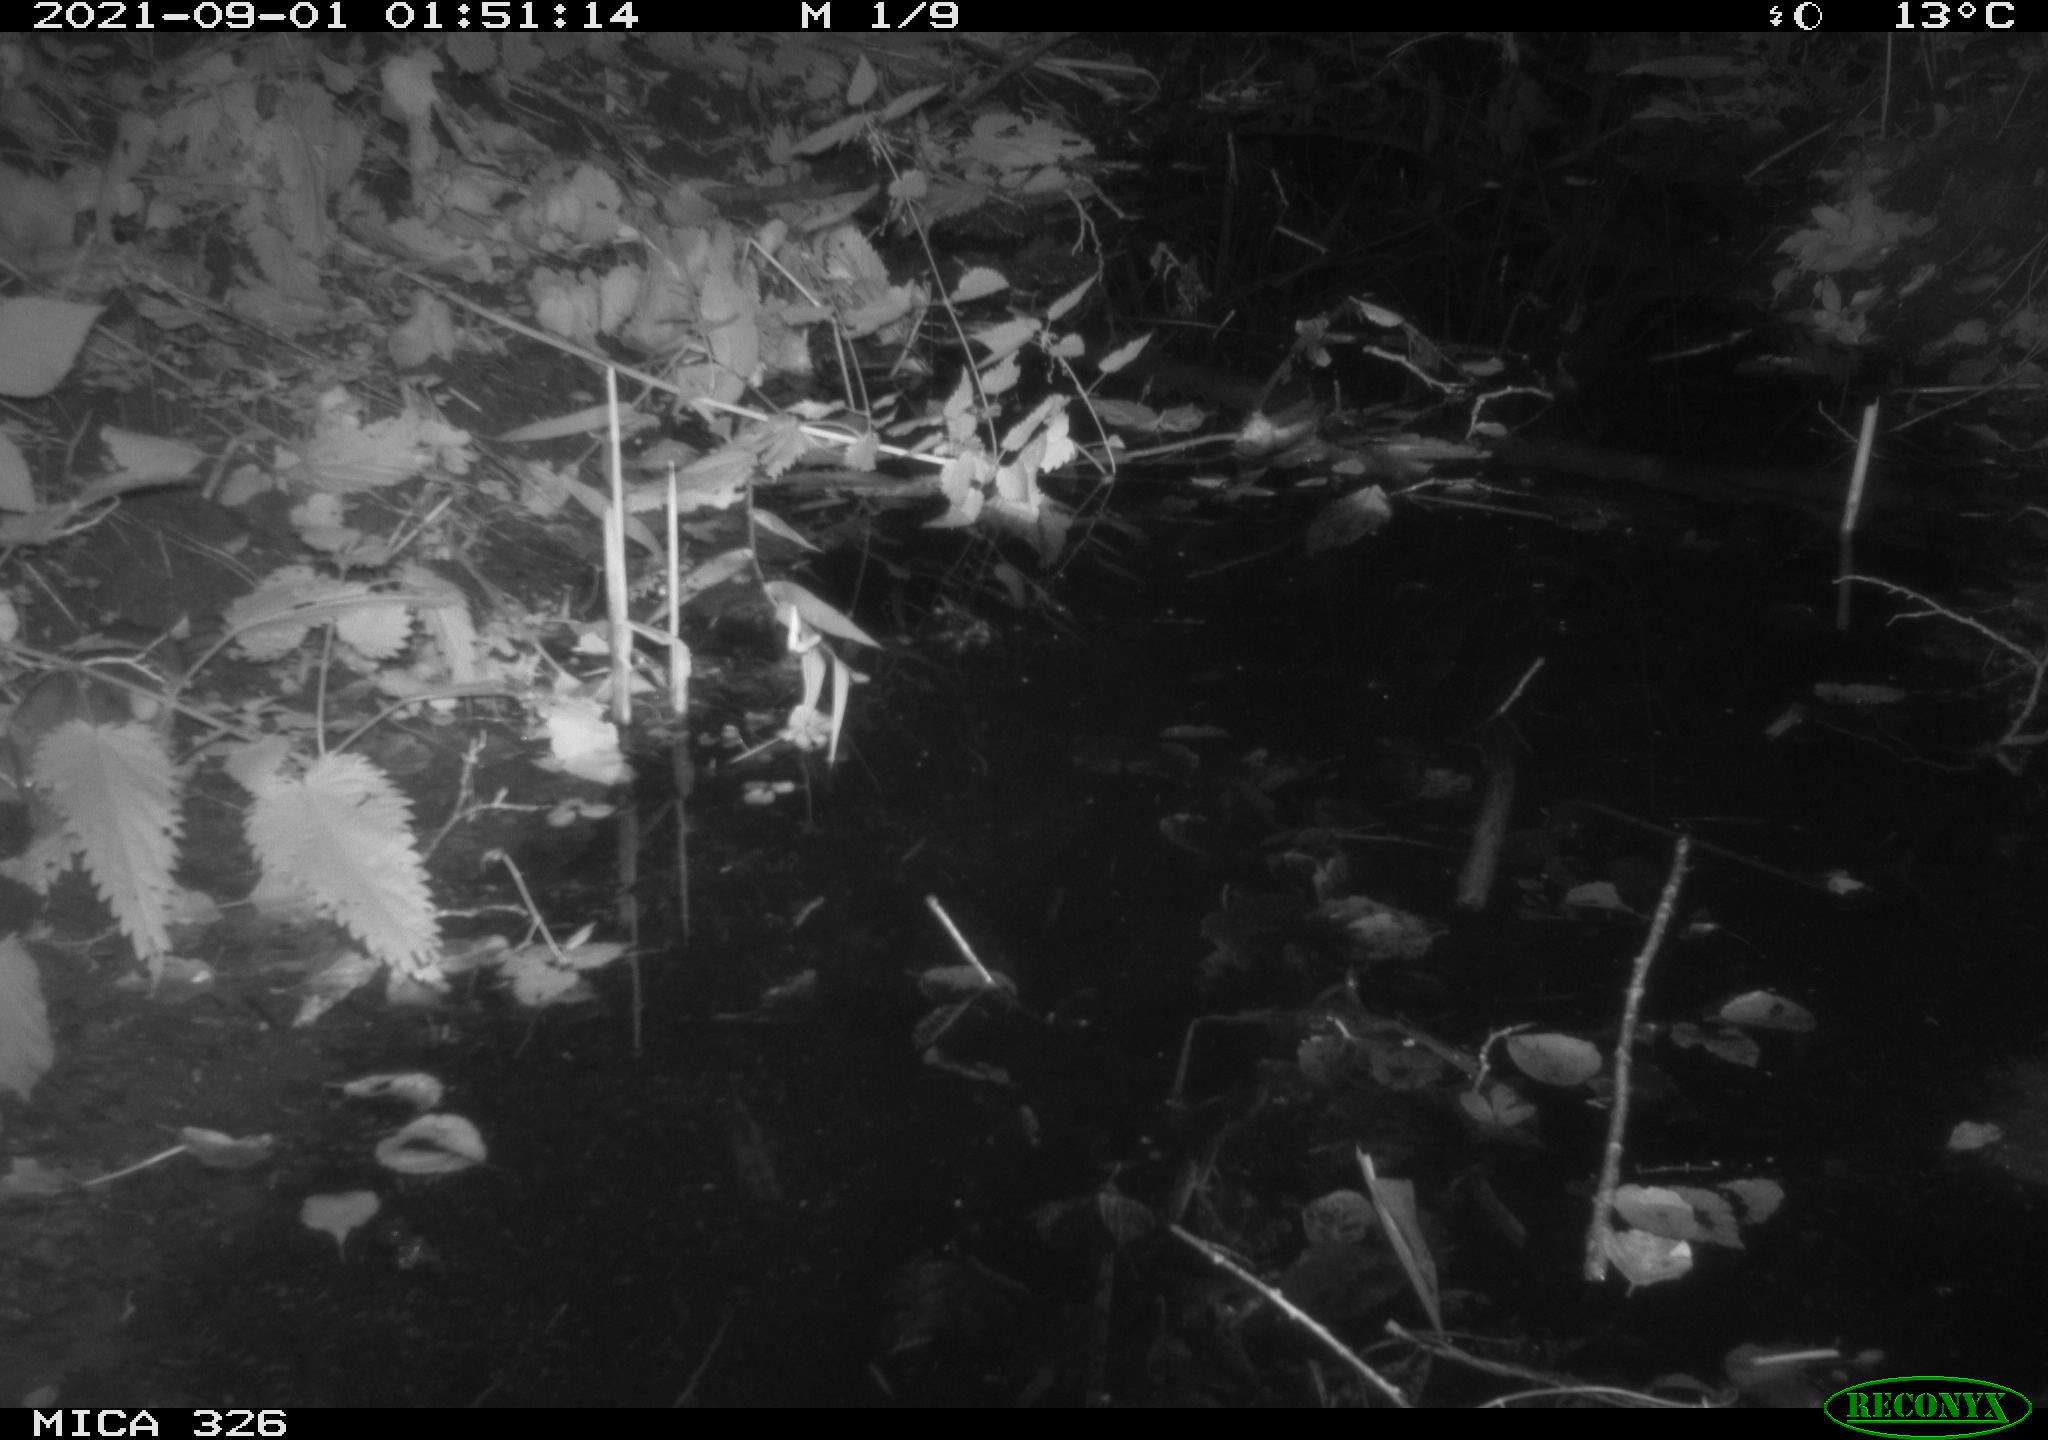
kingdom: Animalia
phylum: Chordata
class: Mammalia
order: Rodentia
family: Muridae
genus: Rattus
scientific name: Rattus norvegicus
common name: Brown rat
